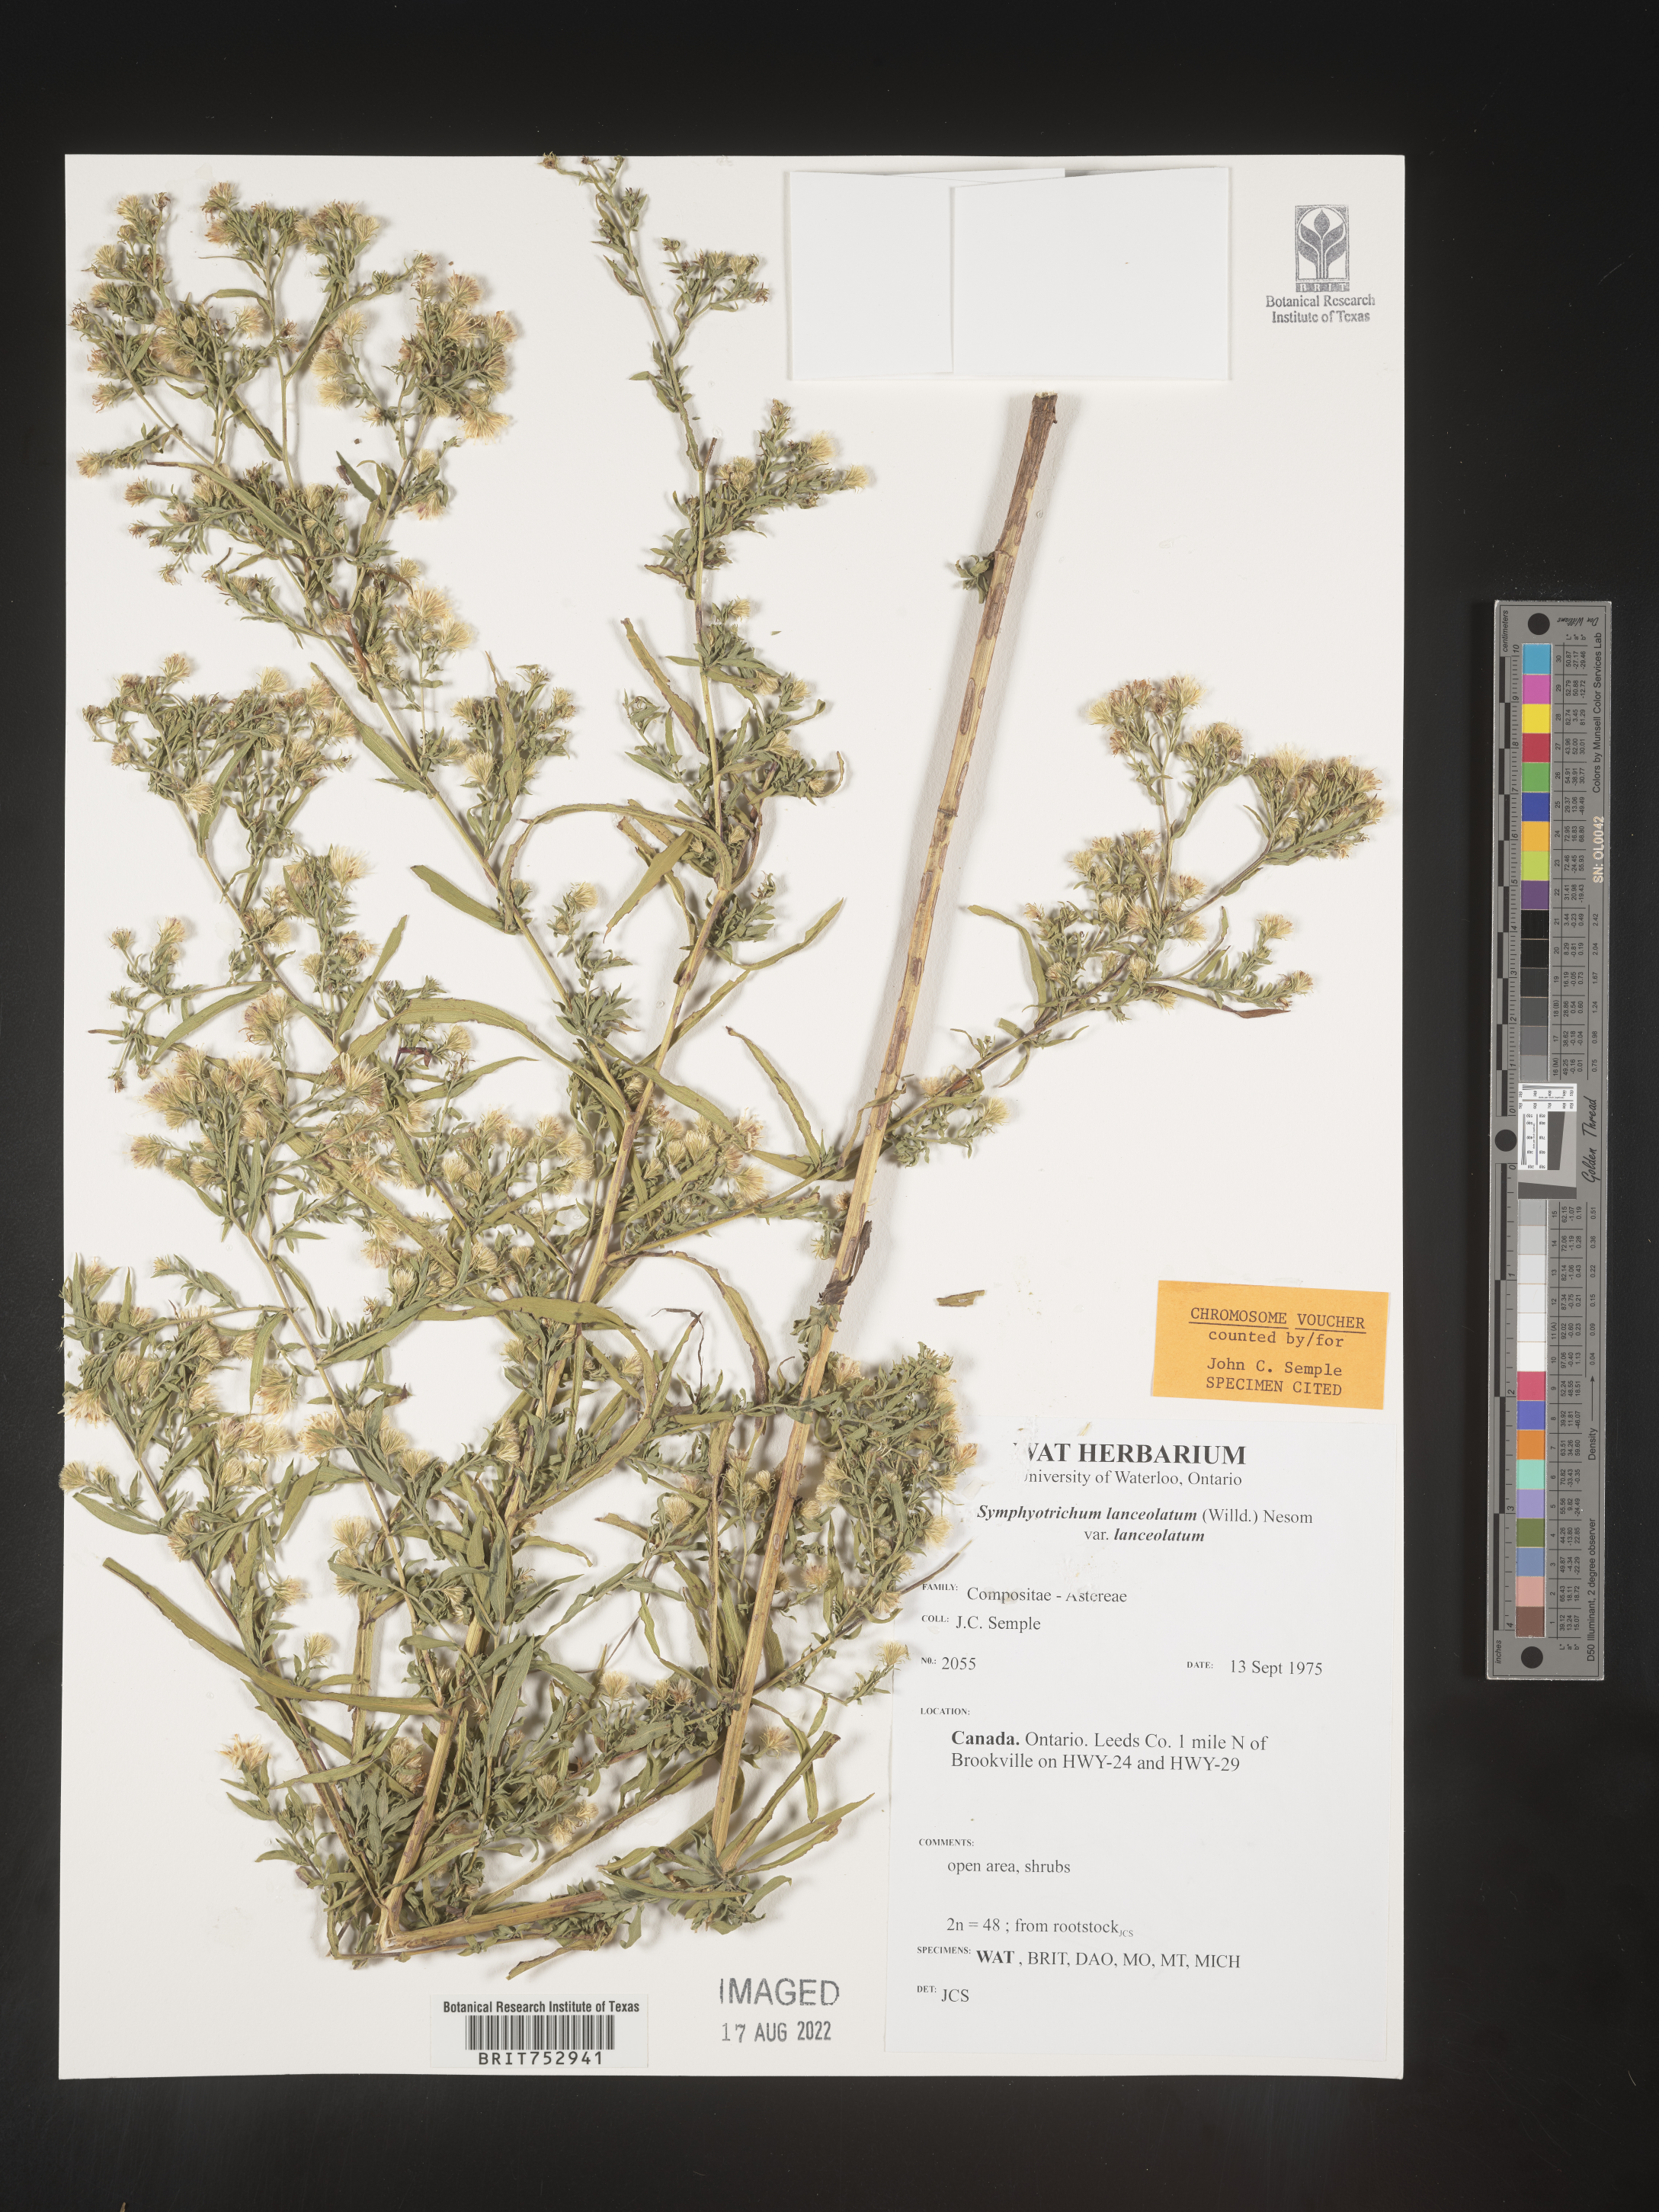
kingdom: Plantae
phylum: Tracheophyta
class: Magnoliopsida
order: Asterales
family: Asteraceae
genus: Symphyotrichum
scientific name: Symphyotrichum lanceolatum
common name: Panicled aster
